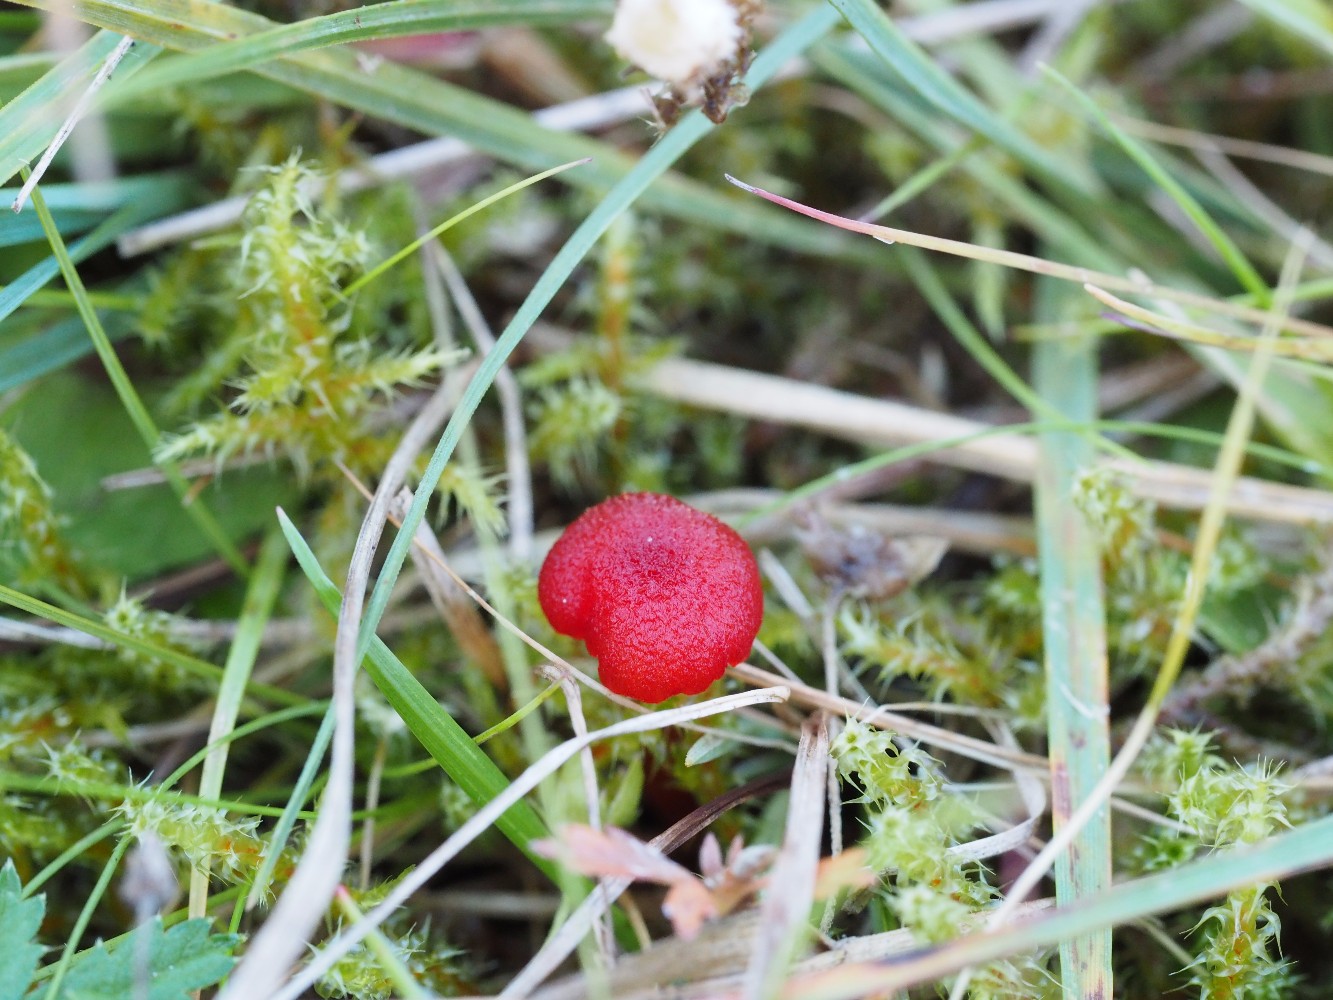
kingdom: Fungi
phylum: Basidiomycota
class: Agaricomycetes
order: Agaricales
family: Hygrophoraceae
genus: Hygrocybe
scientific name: Hygrocybe cantharellus
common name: kantarel-vokshat
